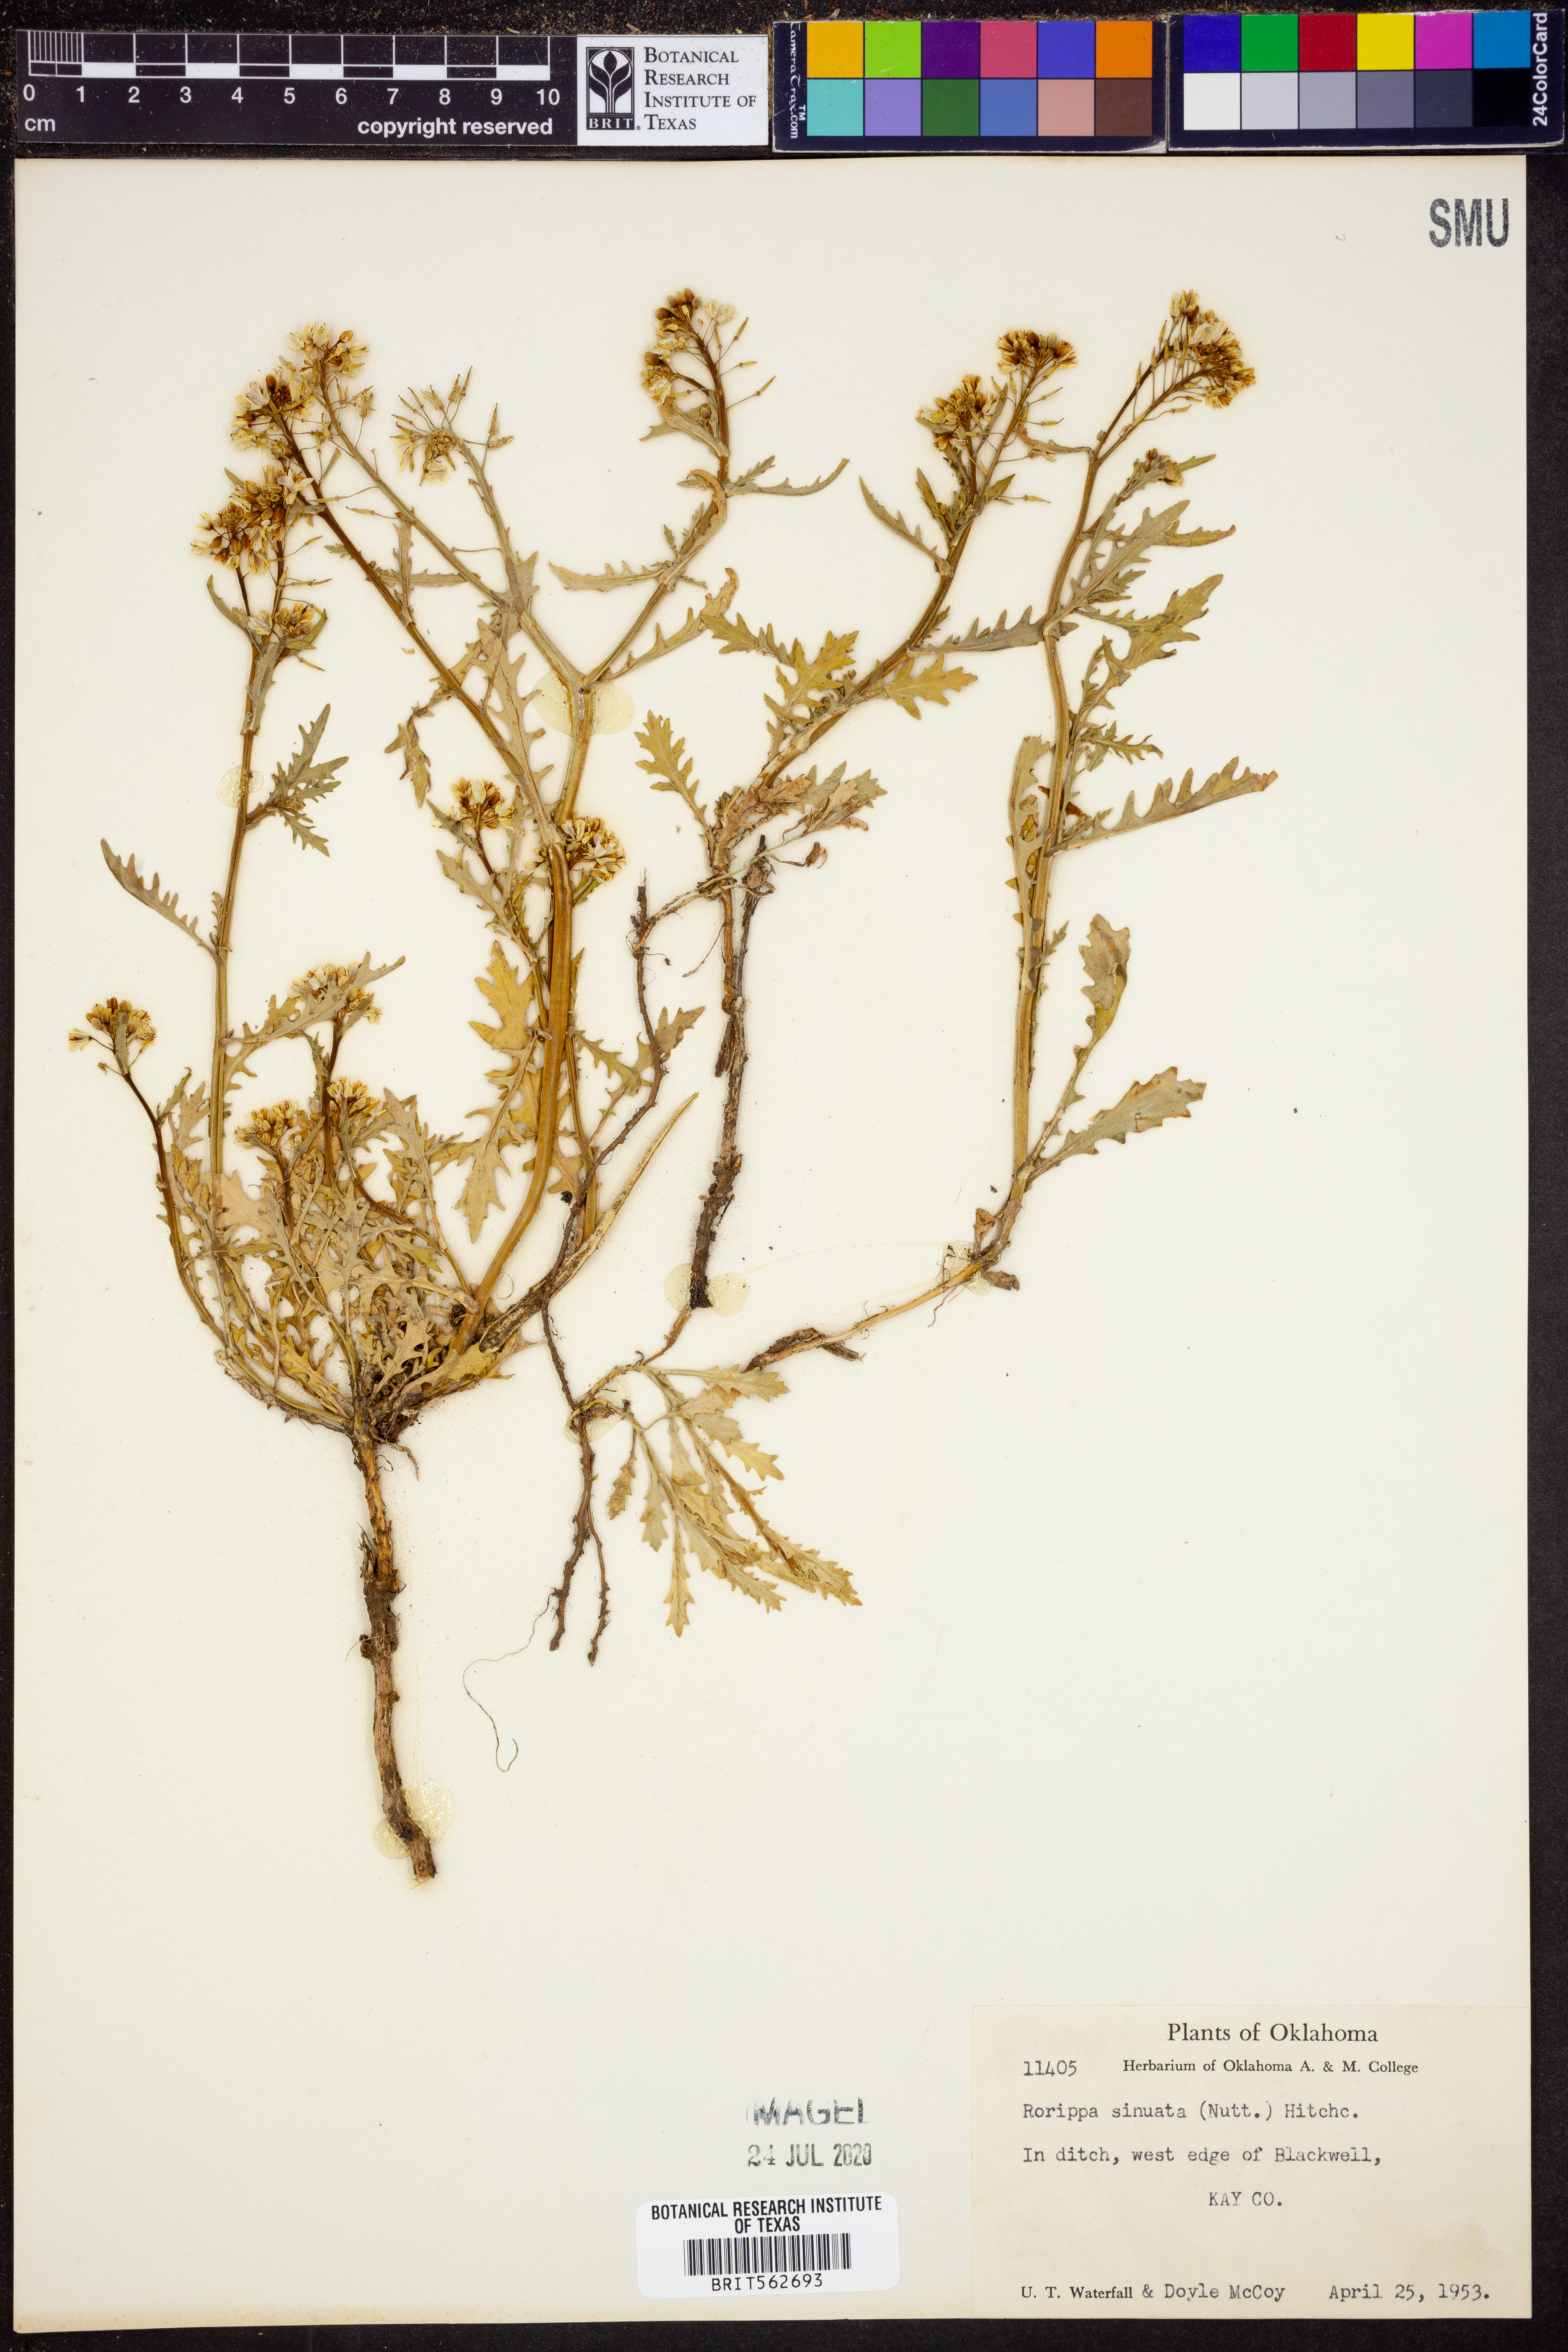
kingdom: Plantae
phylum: Tracheophyta
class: Magnoliopsida
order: Brassicales
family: Brassicaceae
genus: Rorippa
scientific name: Rorippa sinuata
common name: Spread yellow cress
